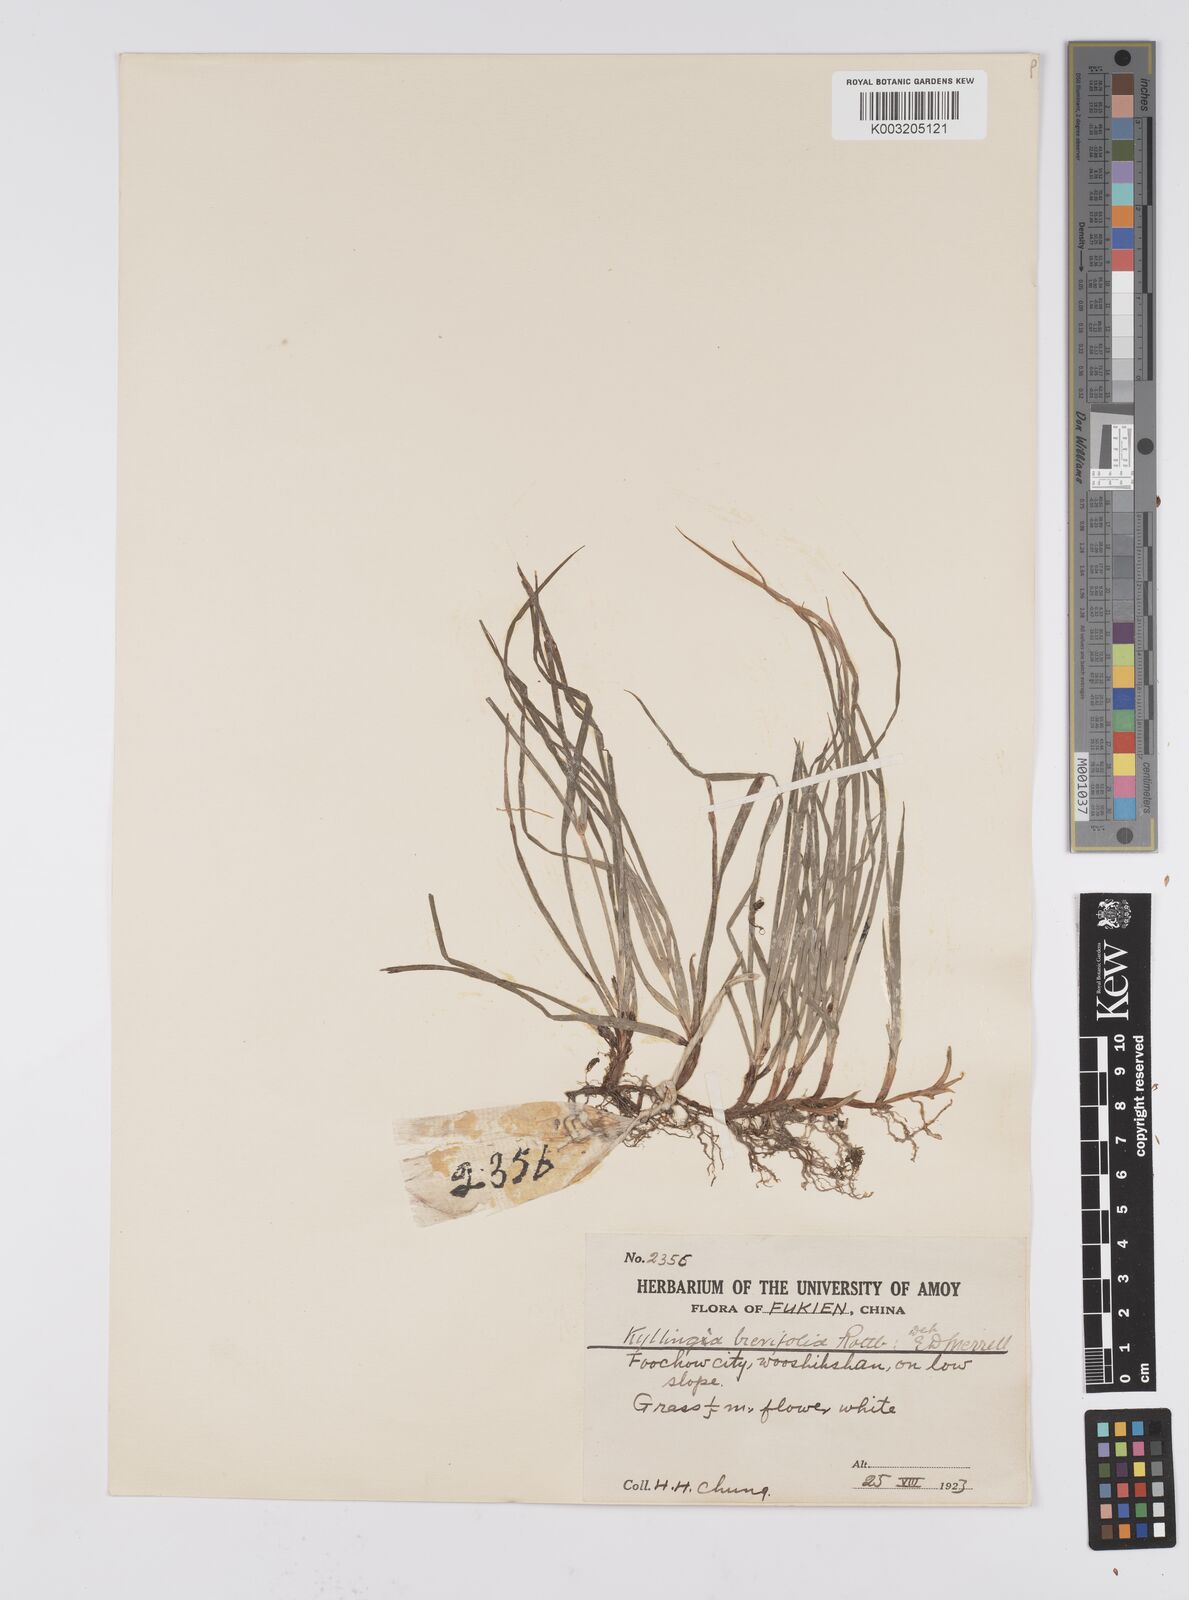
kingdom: Plantae
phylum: Tracheophyta
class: Liliopsida
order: Poales
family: Cyperaceae
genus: Cyperus
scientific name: Cyperus brevifolius
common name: Globe kyllinga
